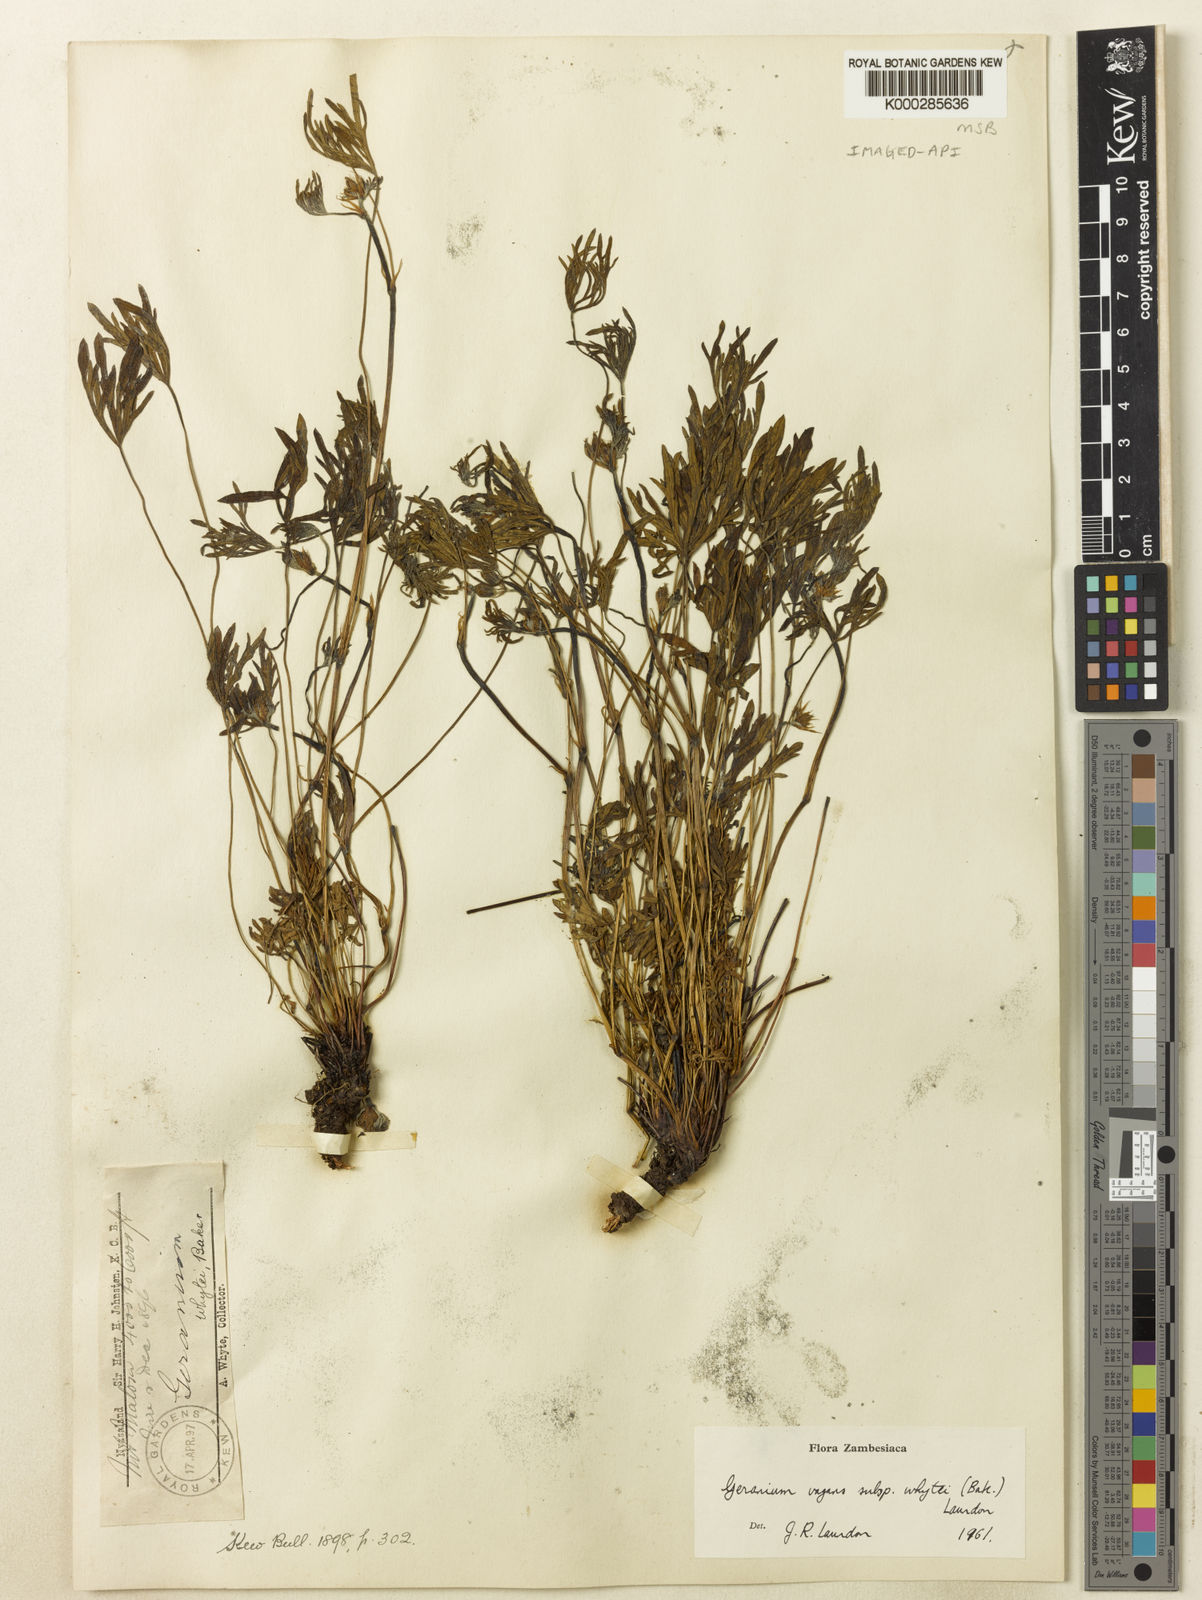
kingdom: Plantae
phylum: Tracheophyta
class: Magnoliopsida
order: Geraniales
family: Geraniaceae
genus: Geranium
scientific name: Geranium vagans
